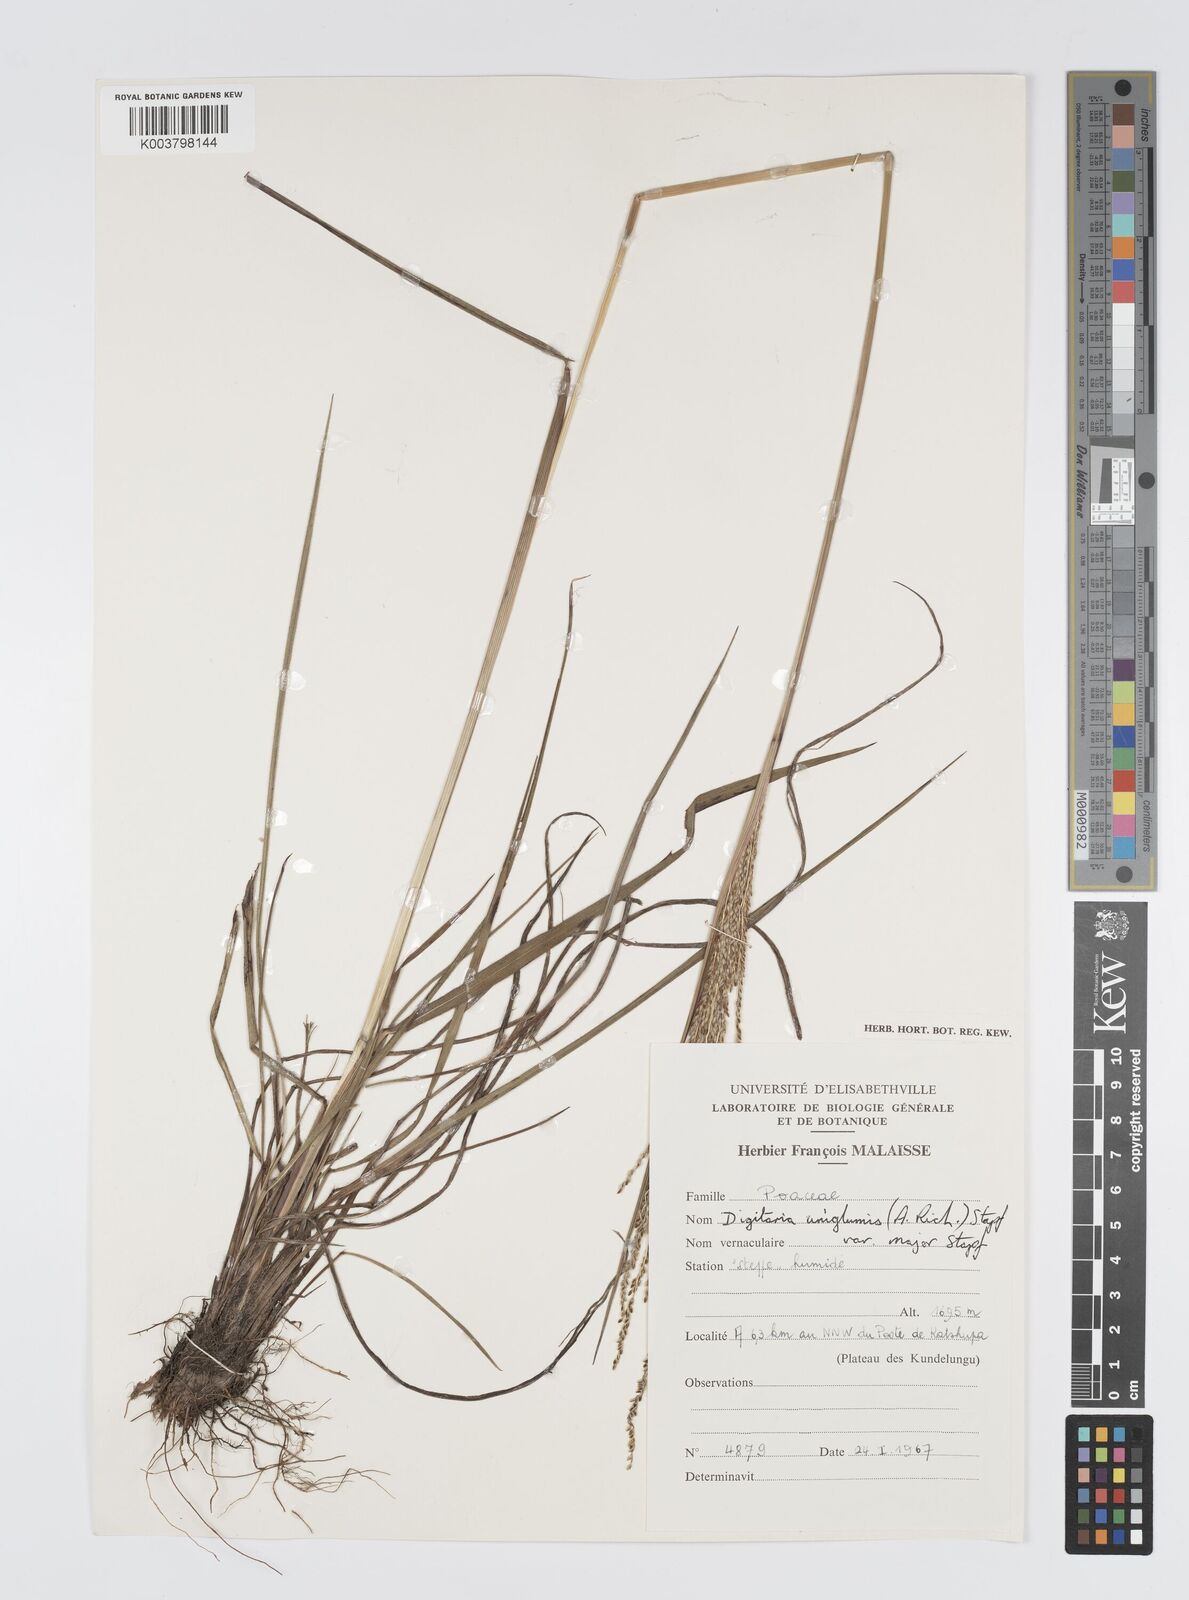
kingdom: Plantae
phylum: Tracheophyta
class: Liliopsida
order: Poales
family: Poaceae
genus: Digitaria
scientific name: Digitaria diagonalis
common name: Brown-seed finger grass
